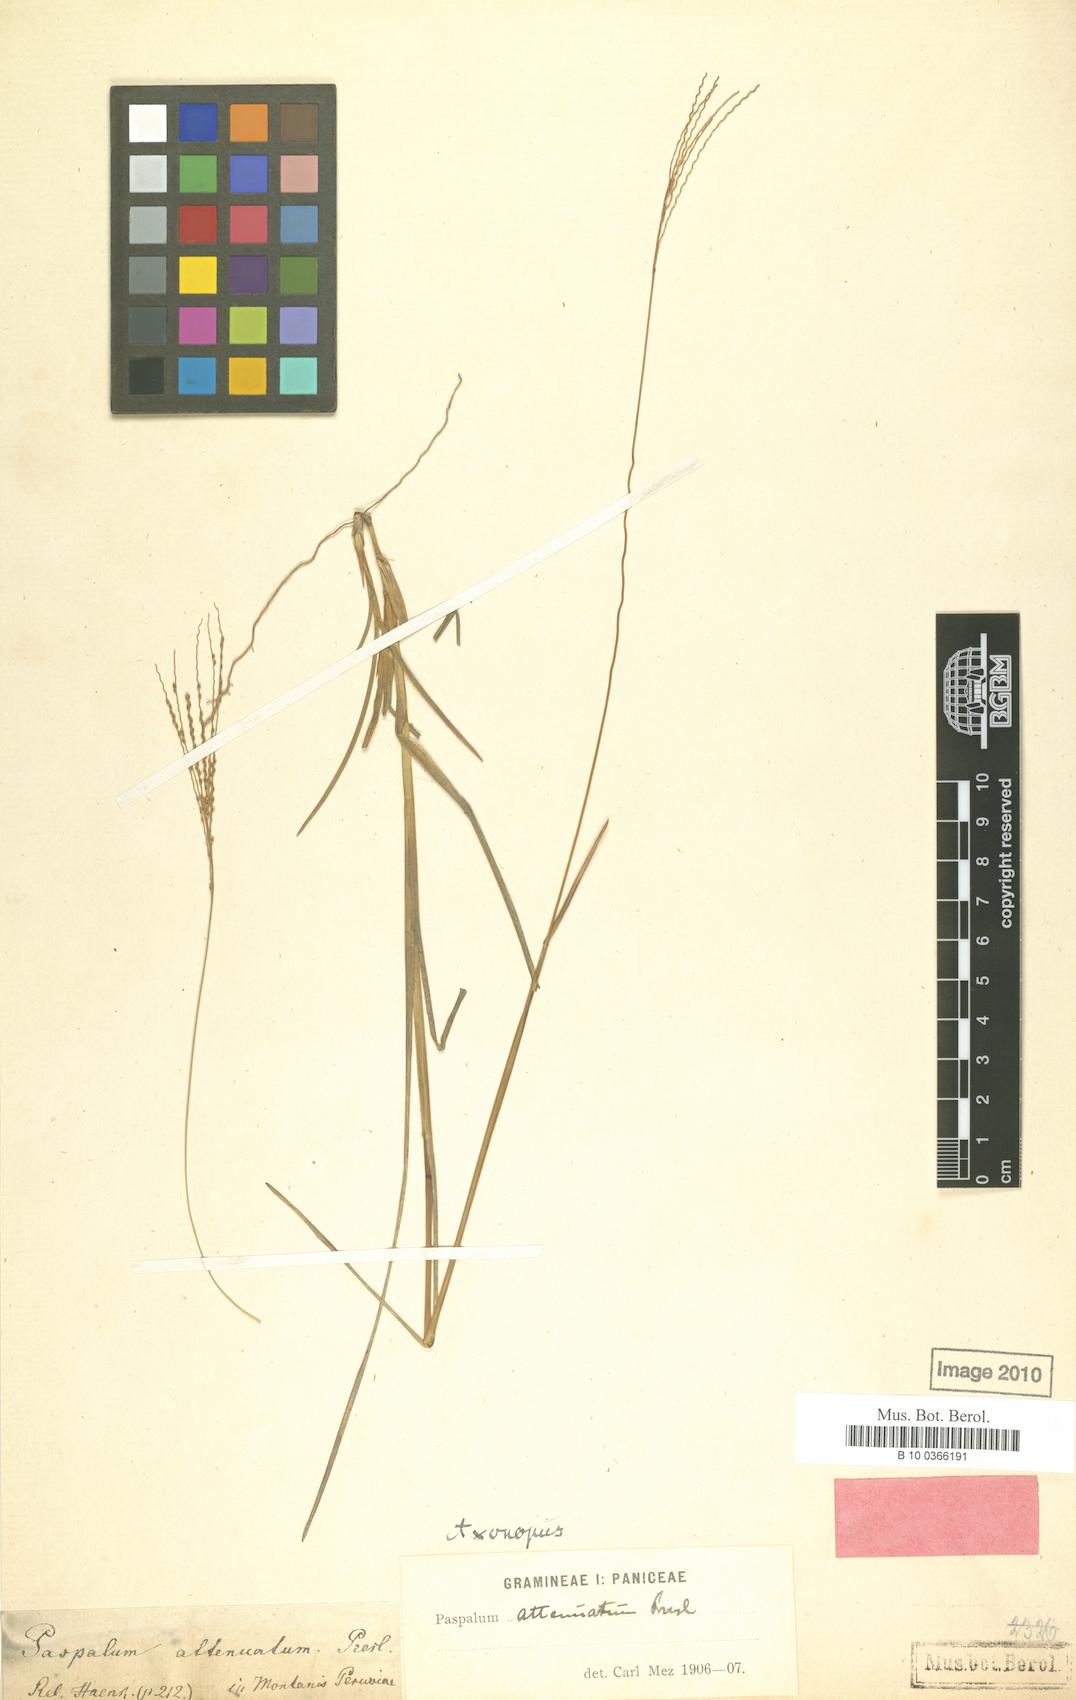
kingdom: Plantae
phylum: Tracheophyta
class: Liliopsida
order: Poales
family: Poaceae
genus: Axonopus
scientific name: Axonopus elegantulus
